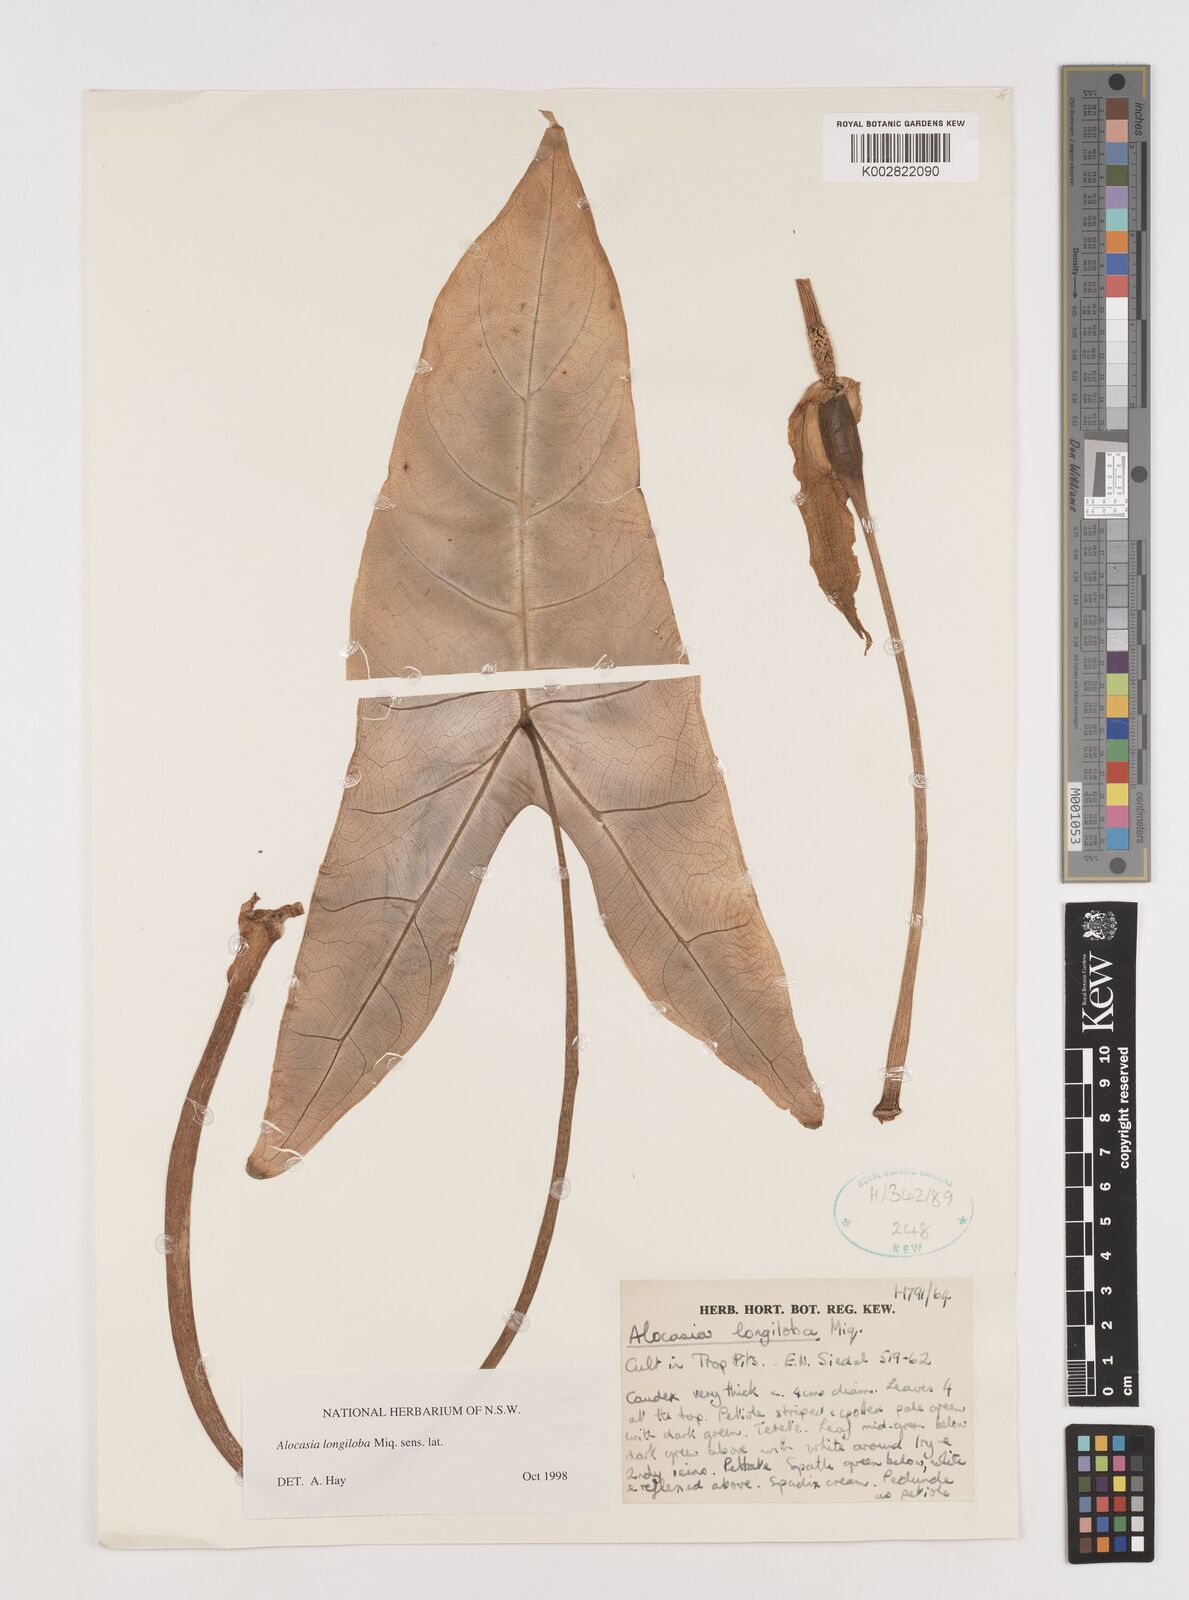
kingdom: Plantae
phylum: Tracheophyta
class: Liliopsida
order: Alismatales
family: Araceae
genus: Alocasia
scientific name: Alocasia longiloba
